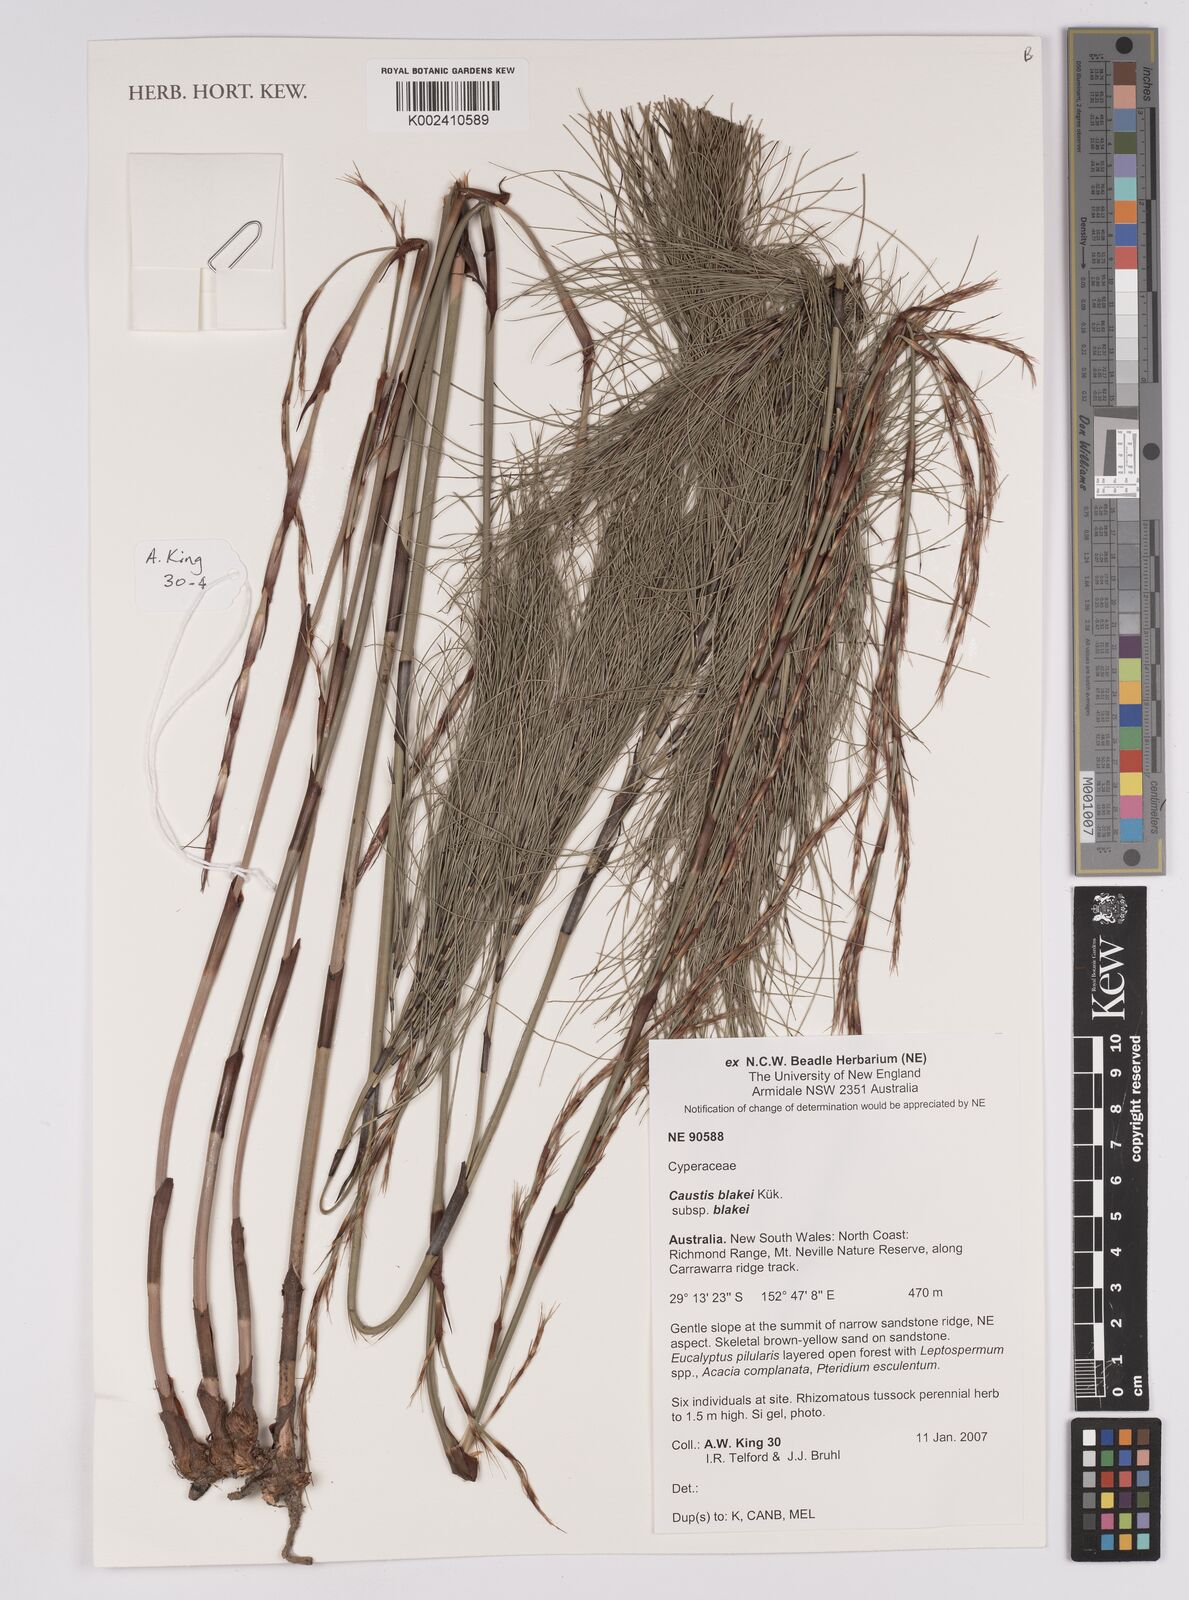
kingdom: Plantae
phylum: Tracheophyta
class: Liliopsida
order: Poales
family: Cyperaceae
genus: Caustis
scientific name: Caustis blakei
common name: Foxtail-fern
